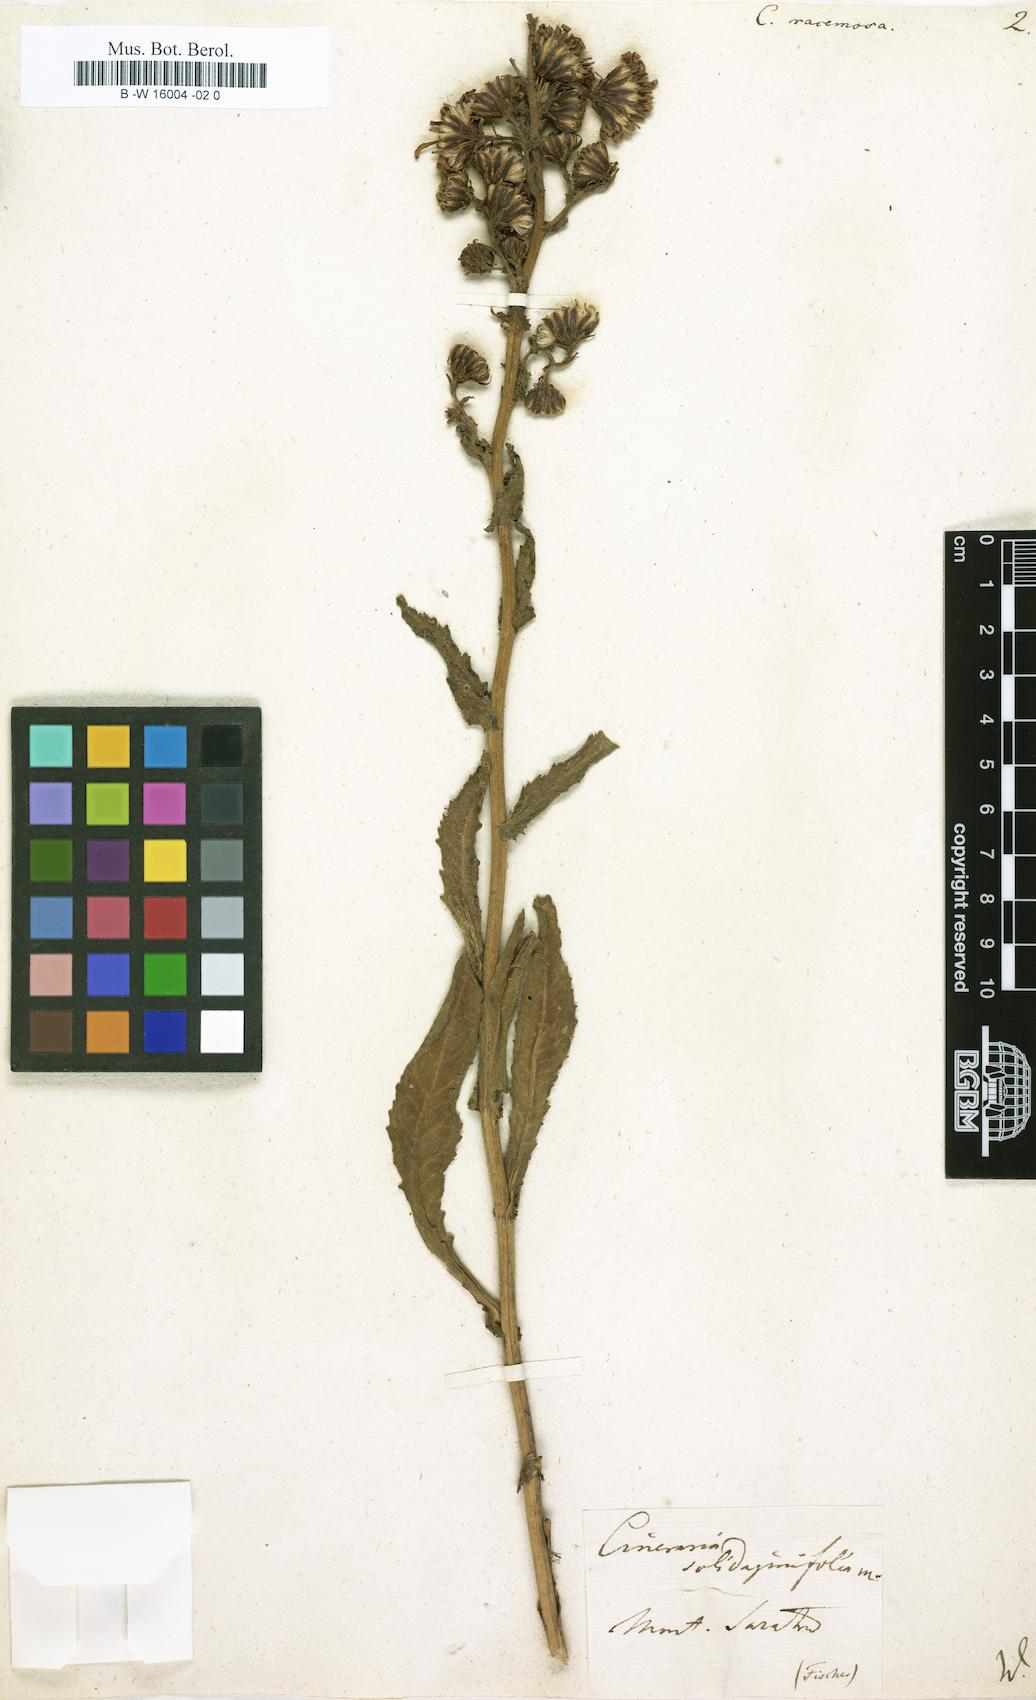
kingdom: Plantae
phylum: Tracheophyta
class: Magnoliopsida
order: Asterales
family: Asteraceae
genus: Jacobaea
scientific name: Jacobaea racemosa
